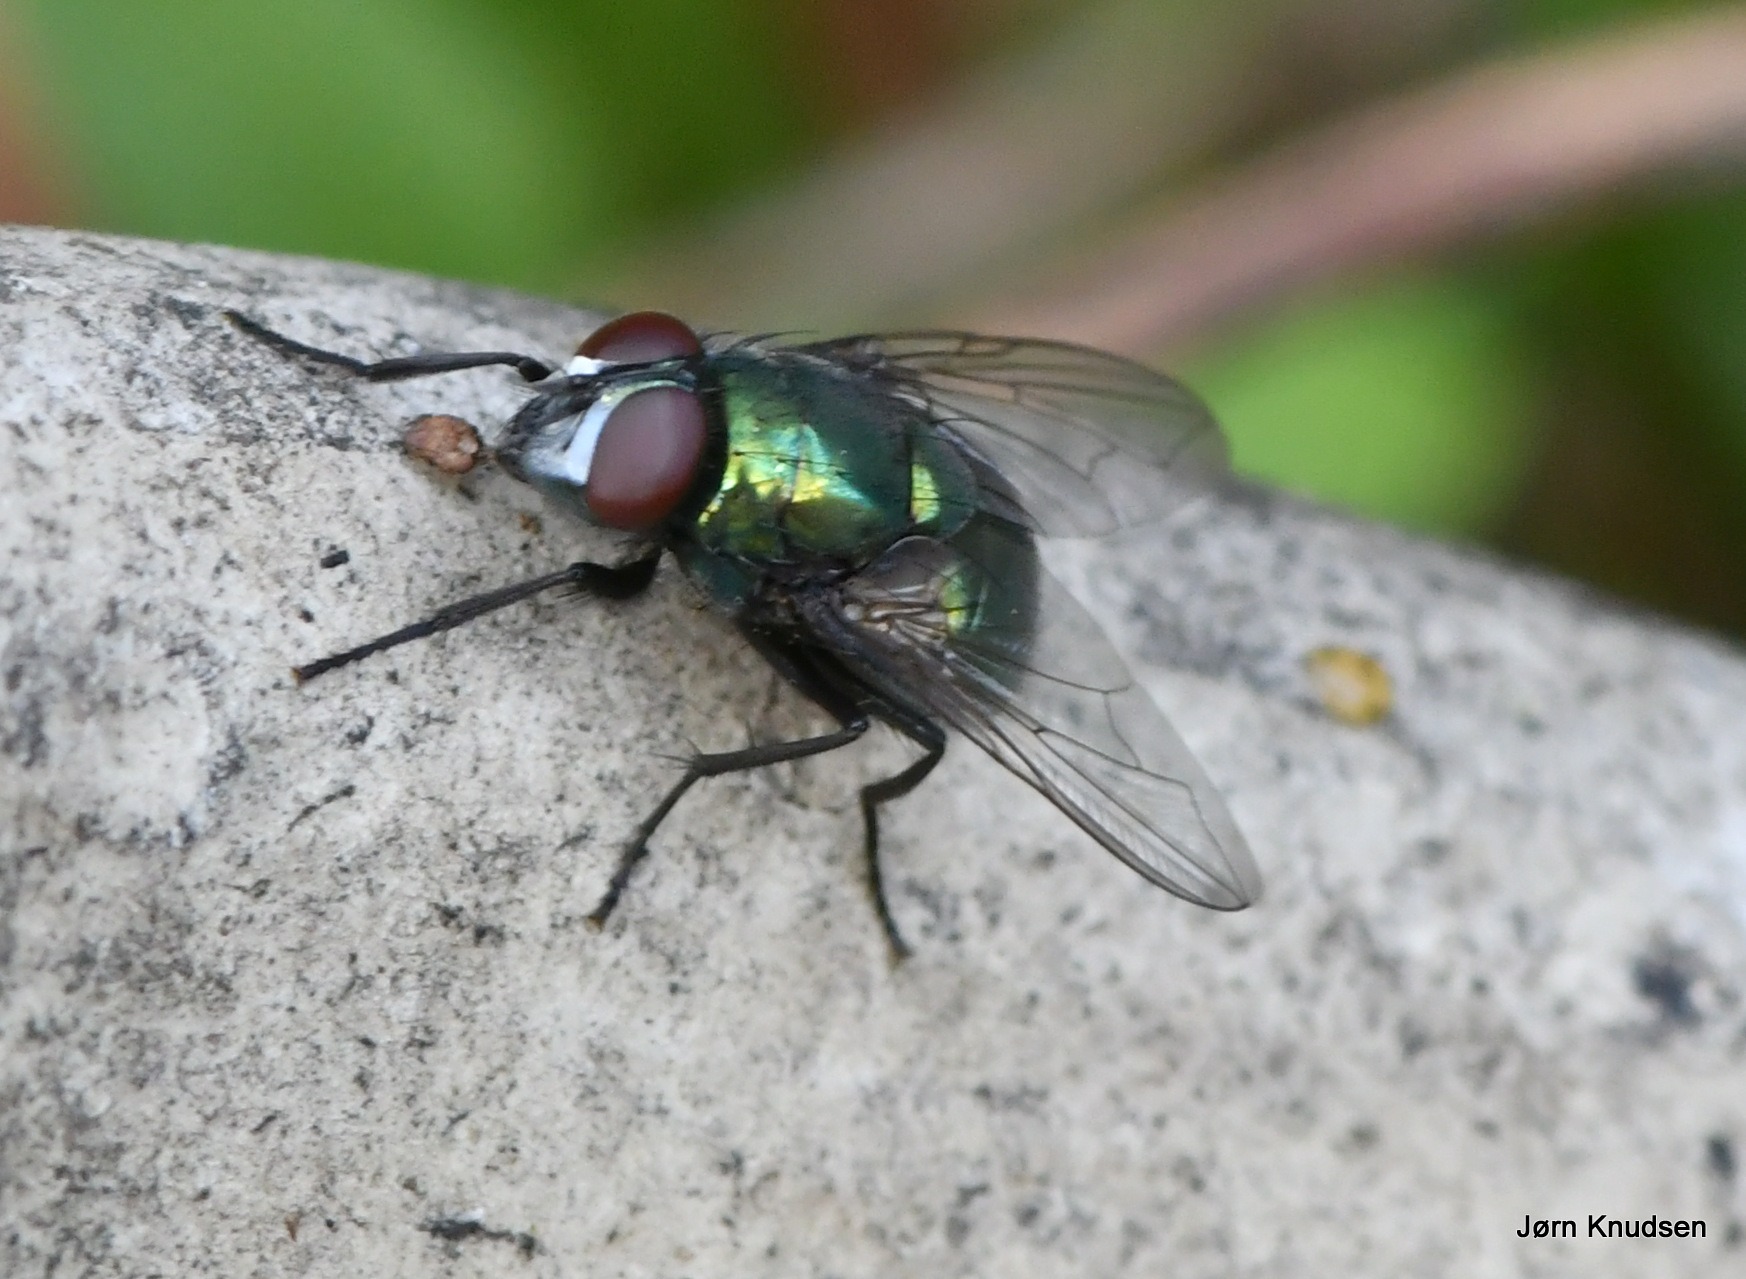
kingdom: Animalia
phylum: Arthropoda
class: Insecta
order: Diptera
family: Muscidae
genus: Neomyia
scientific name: Neomyia cornicina
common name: Grøn kokasseflue
